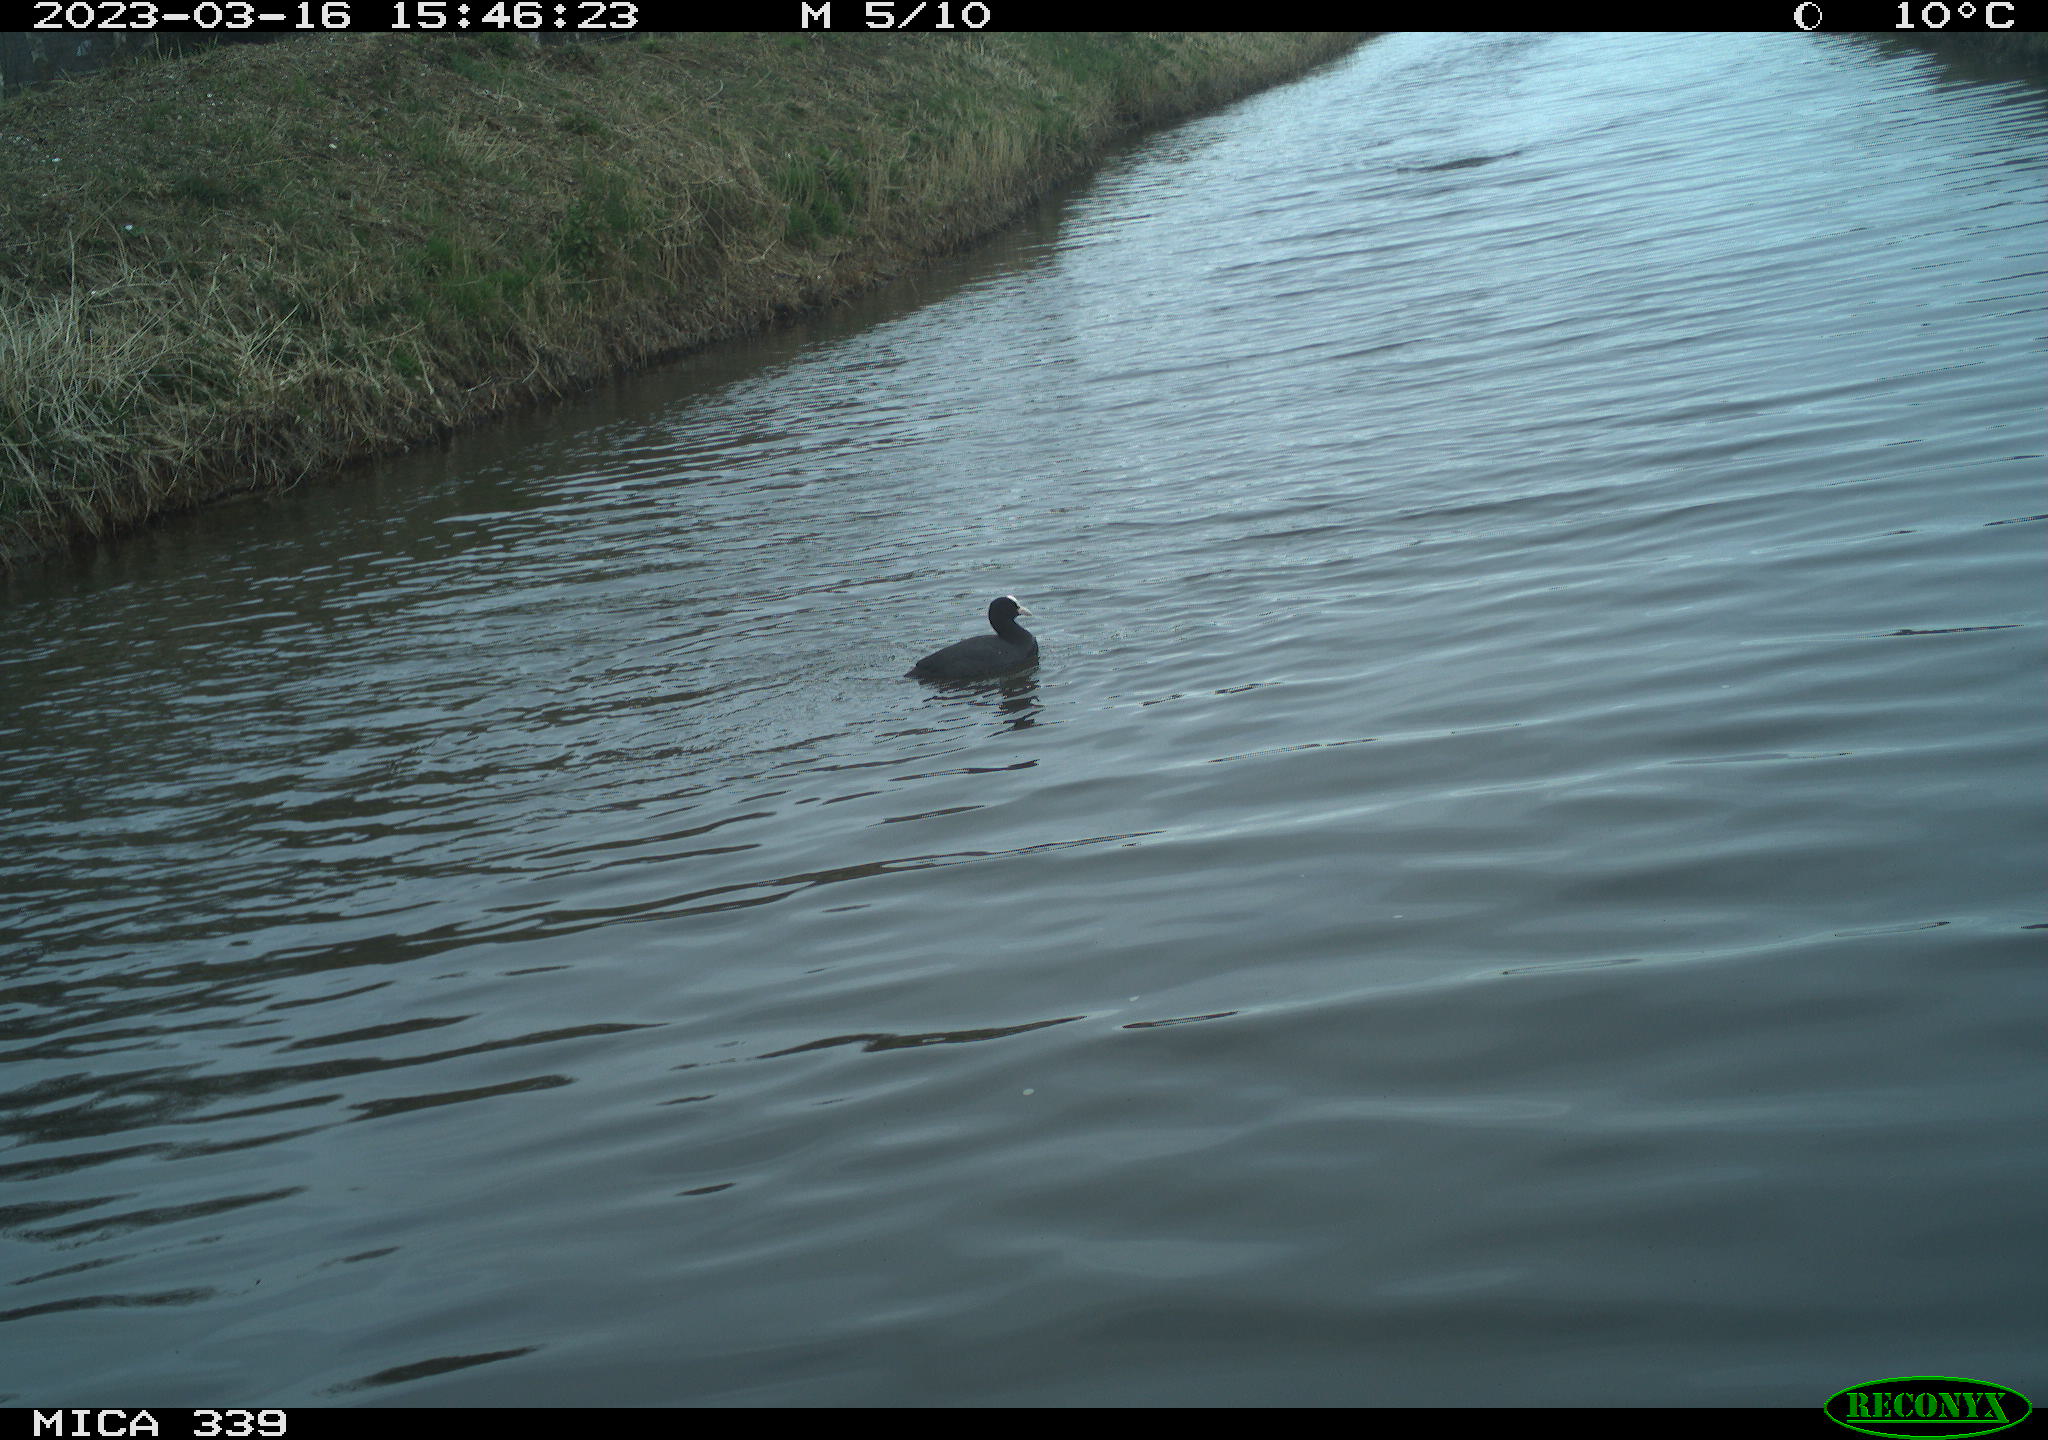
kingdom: Animalia
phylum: Chordata
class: Aves
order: Gruiformes
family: Rallidae
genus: Fulica
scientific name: Fulica atra
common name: Eurasian coot
